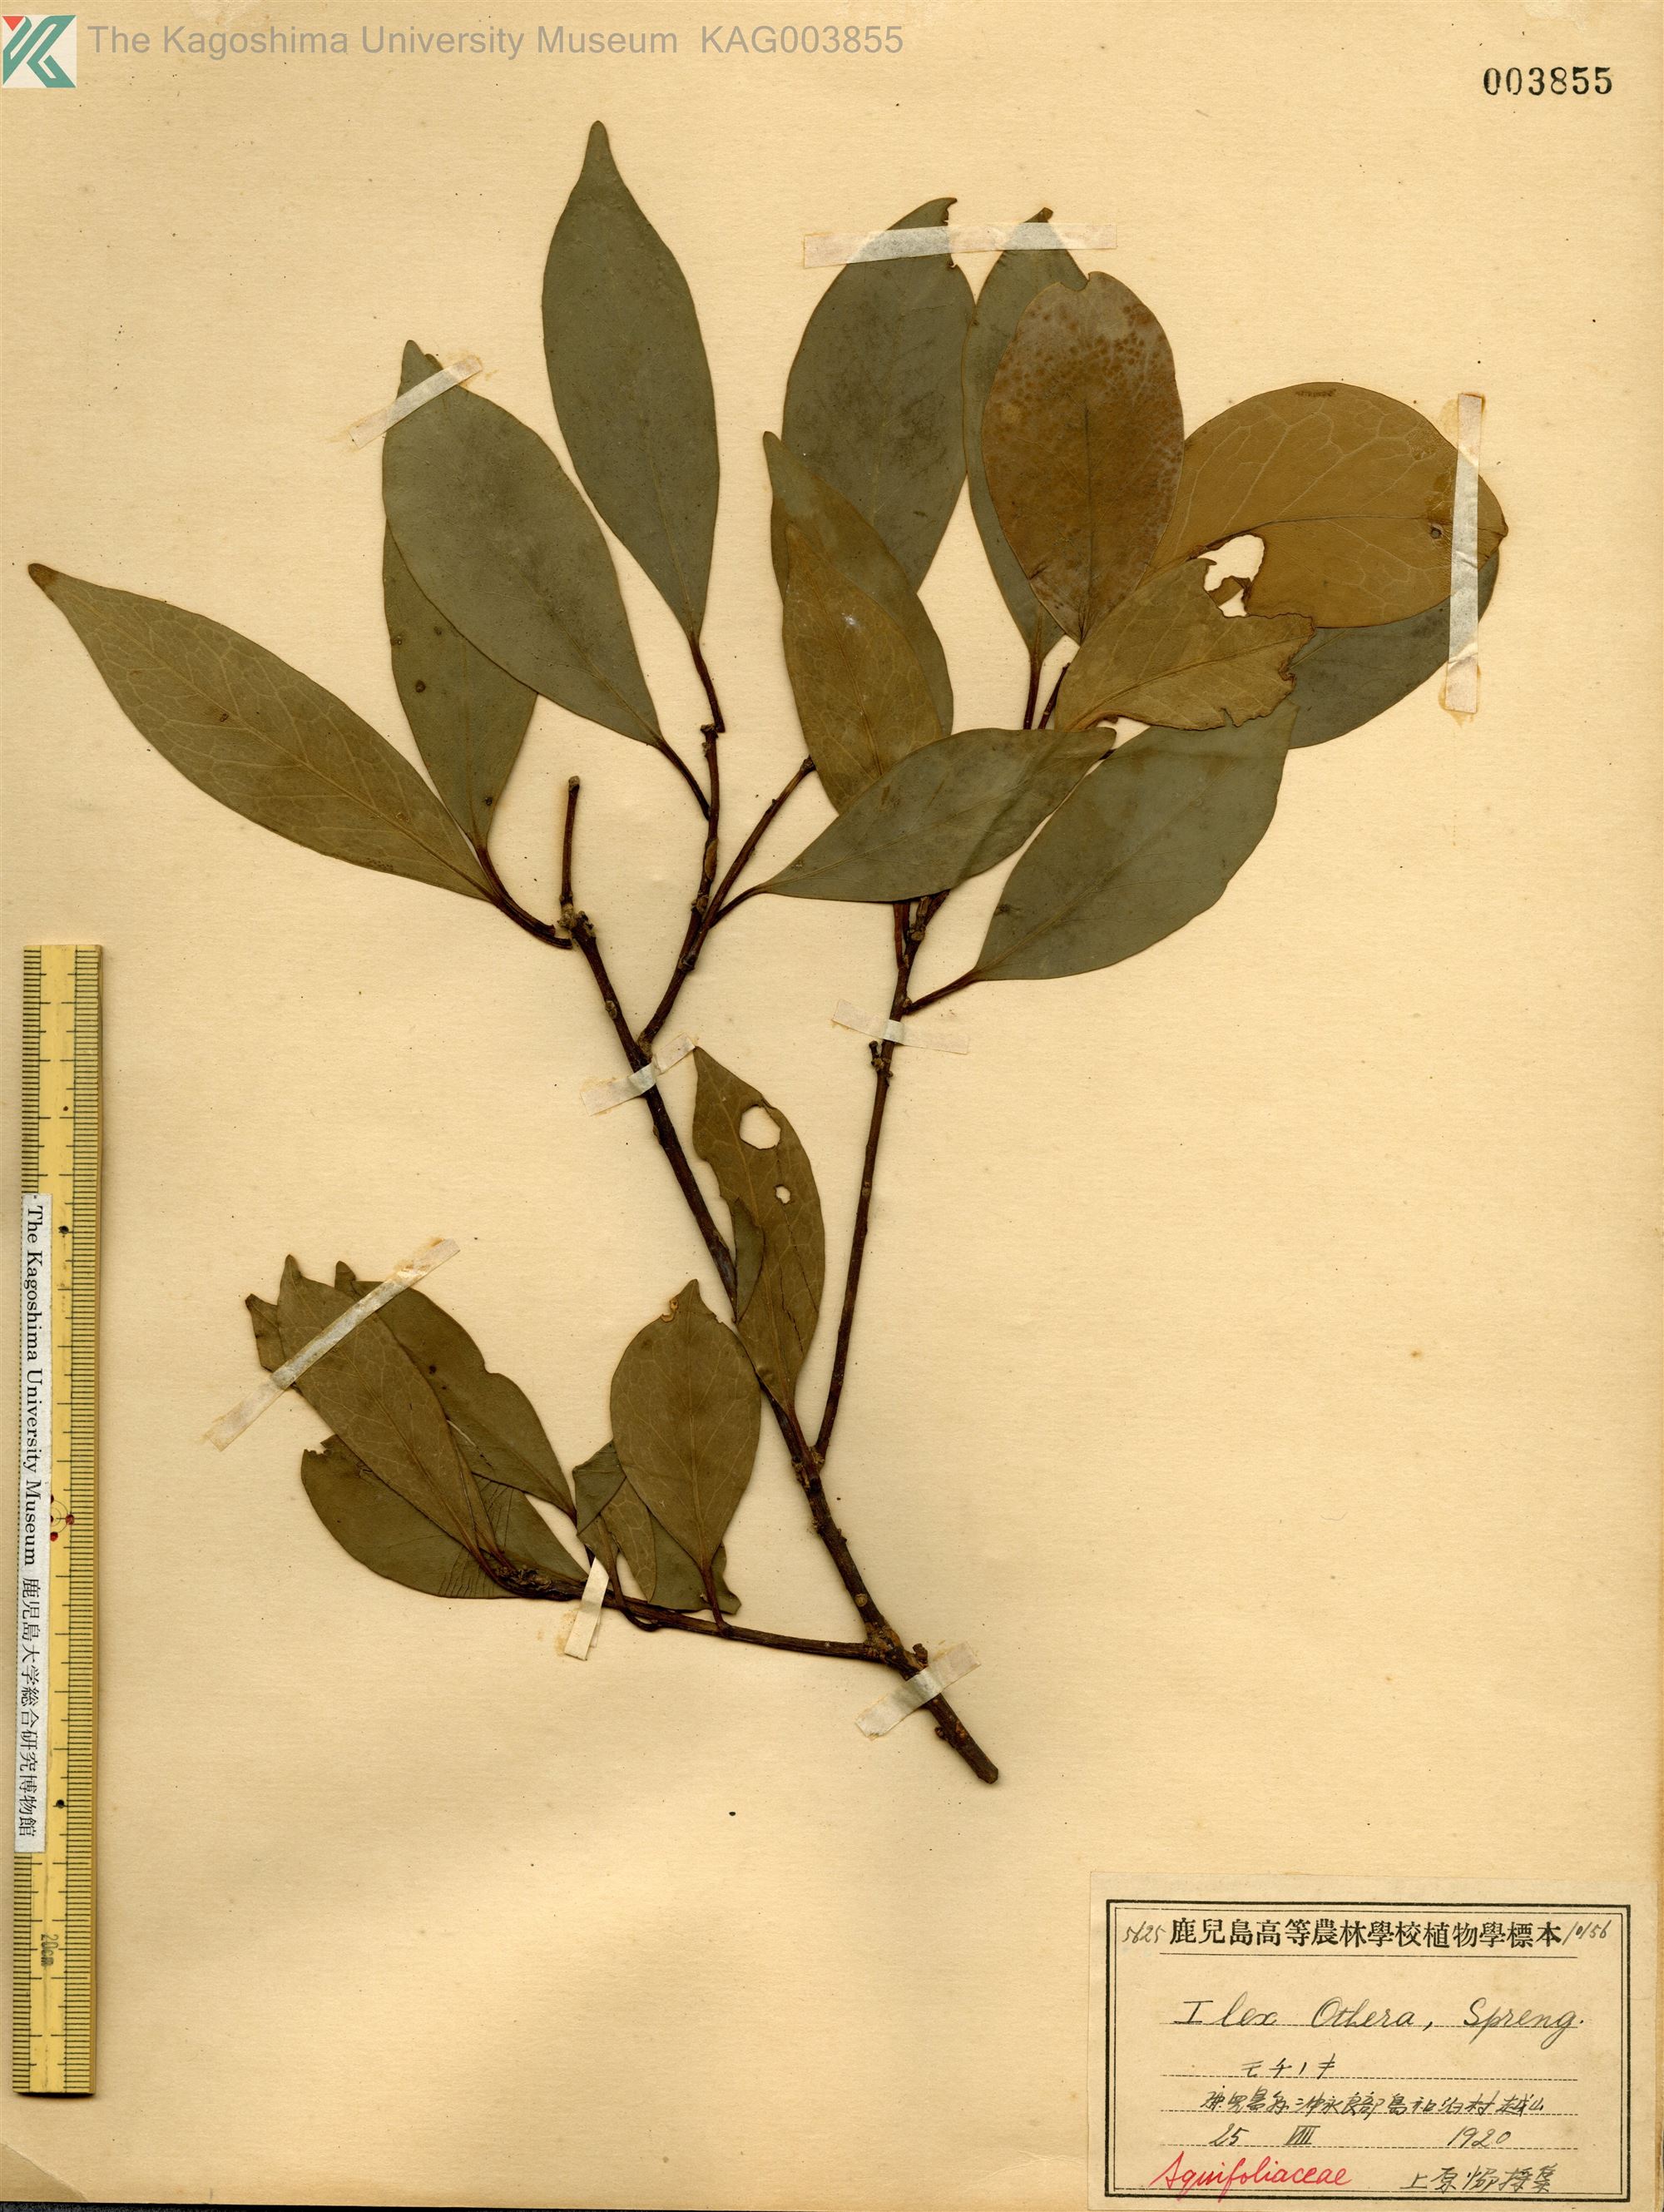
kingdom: Plantae
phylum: Tracheophyta
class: Magnoliopsida
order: Aquifoliales
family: Aquifoliaceae
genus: Ilex
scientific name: Ilex integra
